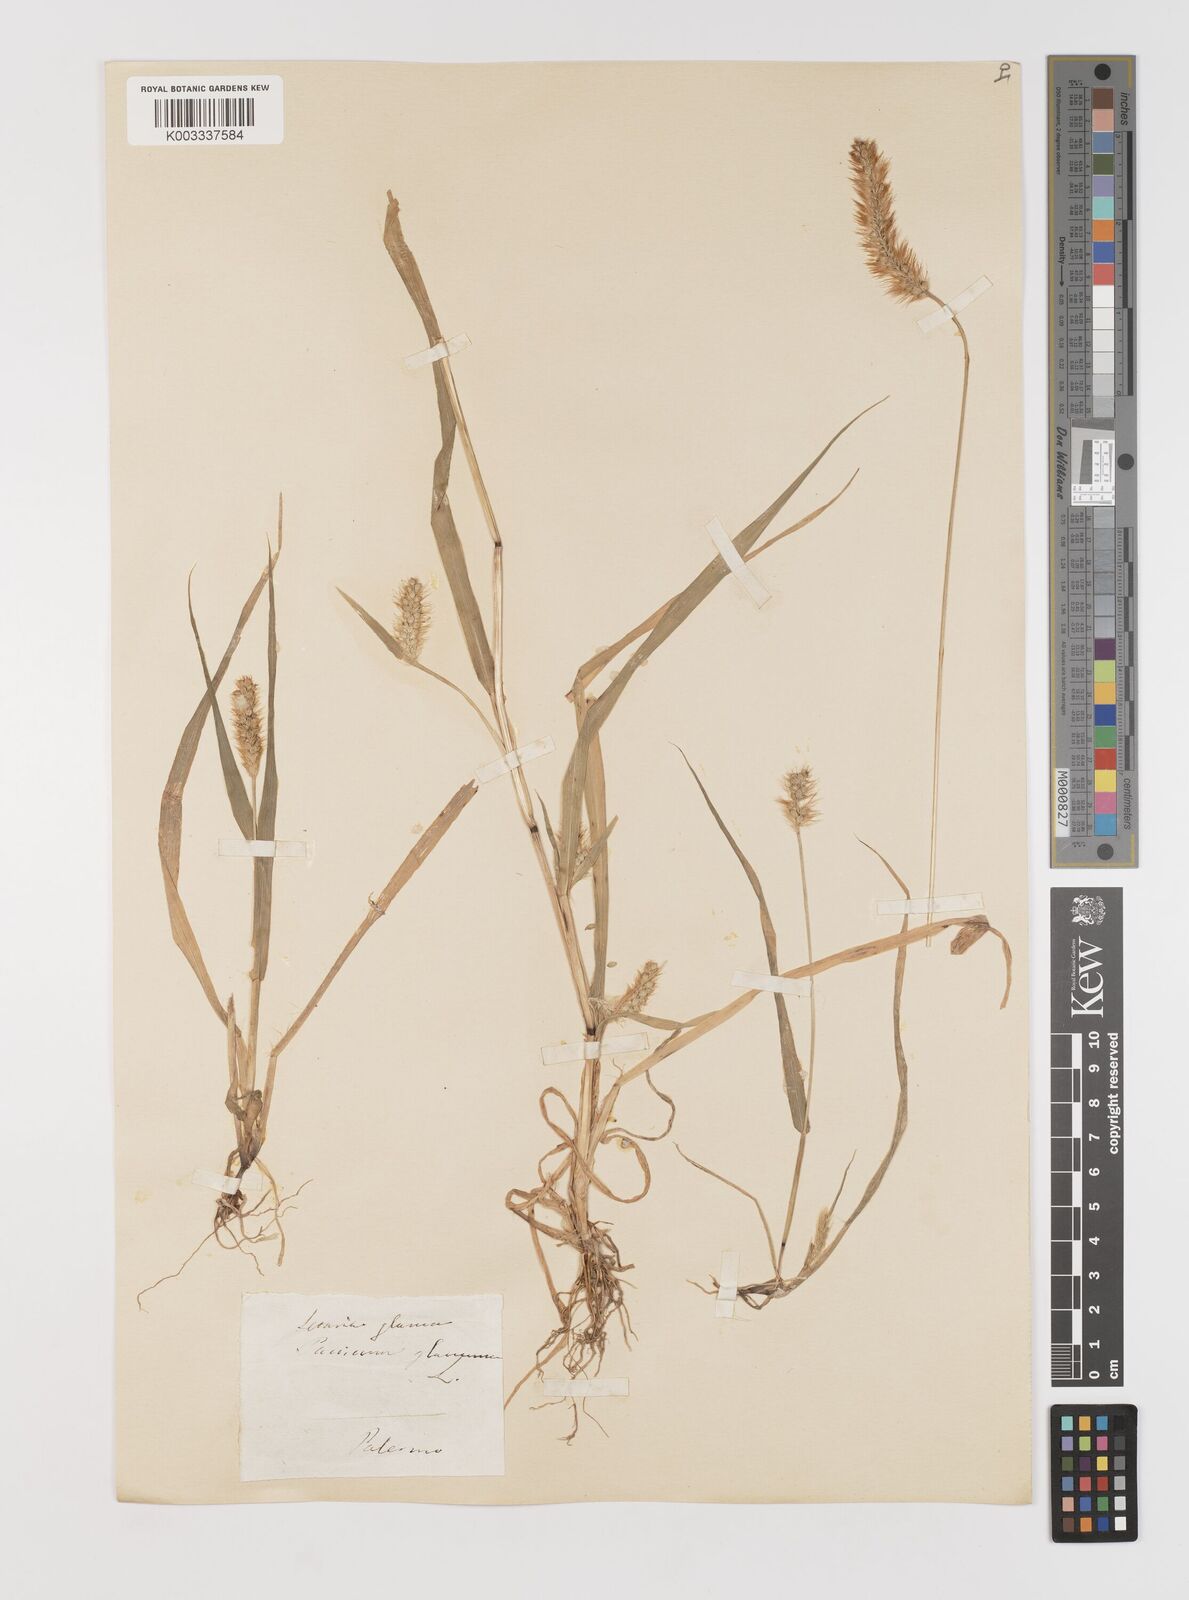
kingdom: Plantae
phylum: Tracheophyta
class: Liliopsida
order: Poales
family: Poaceae
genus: Setaria
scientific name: Setaria pumila
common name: Yellow bristle-grass
